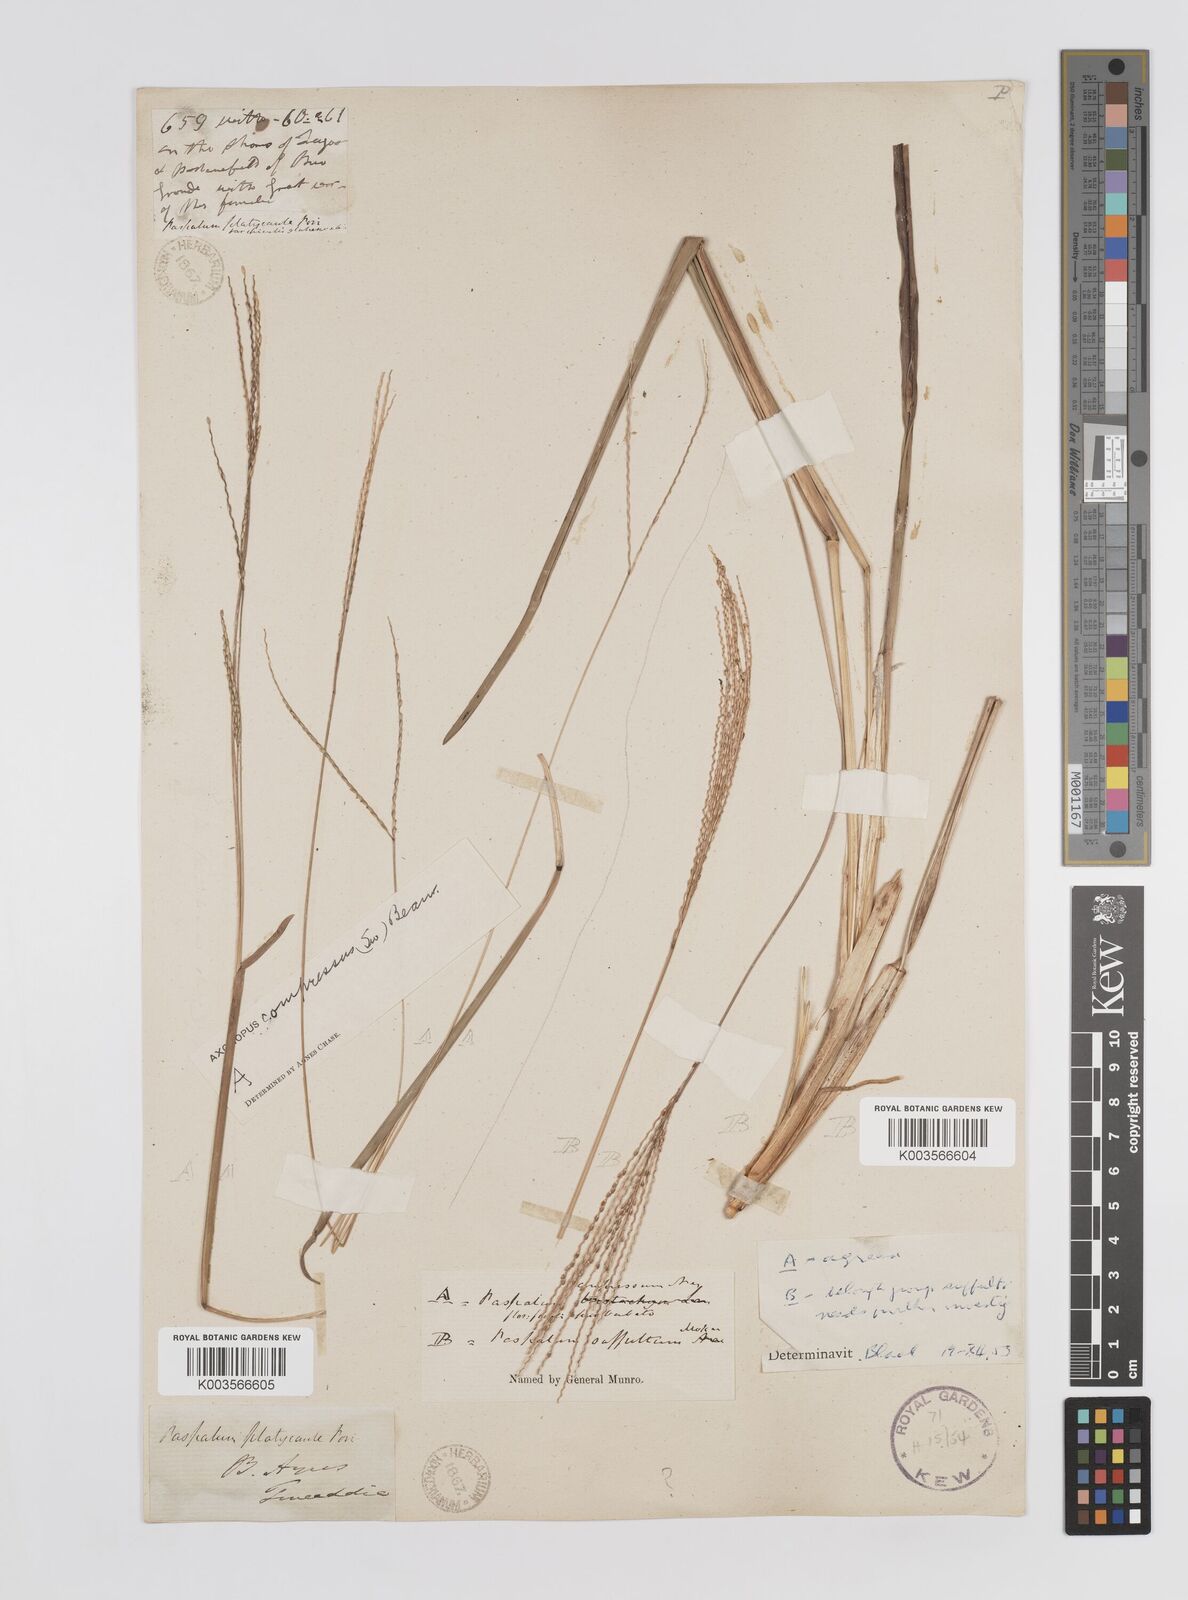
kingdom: Plantae
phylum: Tracheophyta
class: Liliopsida
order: Poales
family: Poaceae
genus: Axonopus
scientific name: Axonopus compressus
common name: American carpet grass
